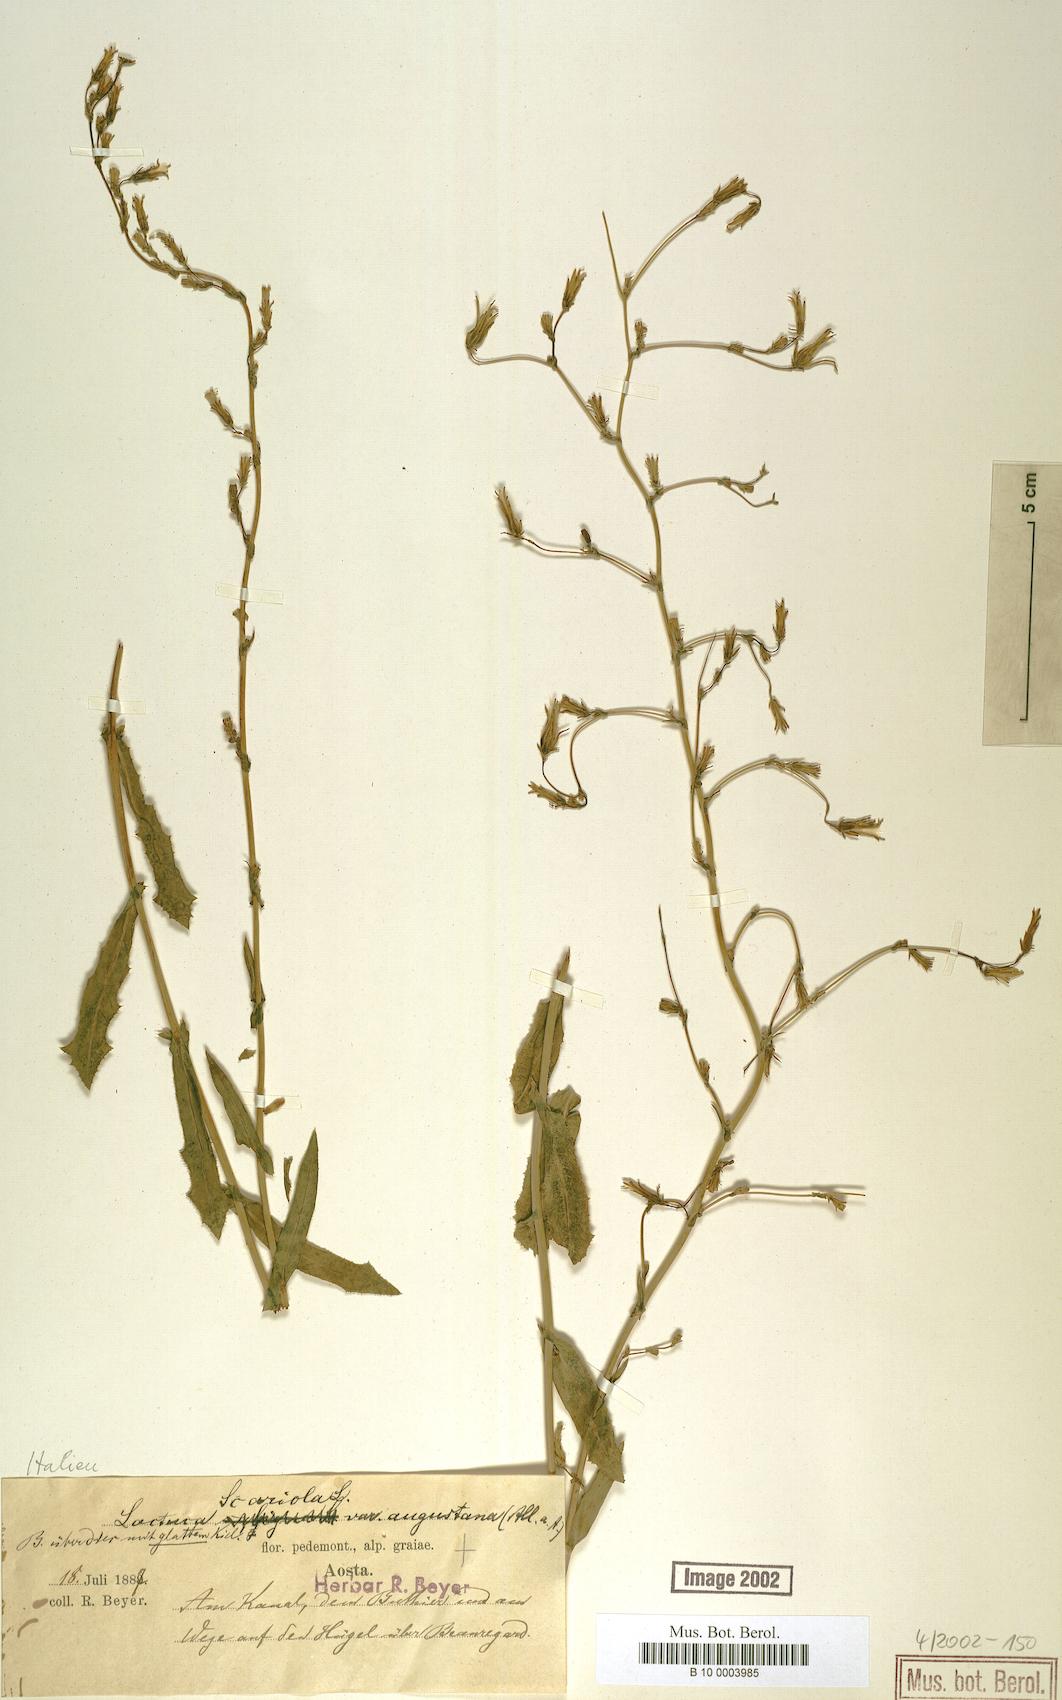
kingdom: Plantae
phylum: Tracheophyta
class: Magnoliopsida
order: Asterales
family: Asteraceae
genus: Lactuca
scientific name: Lactuca serriola
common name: Prickly lettuce
